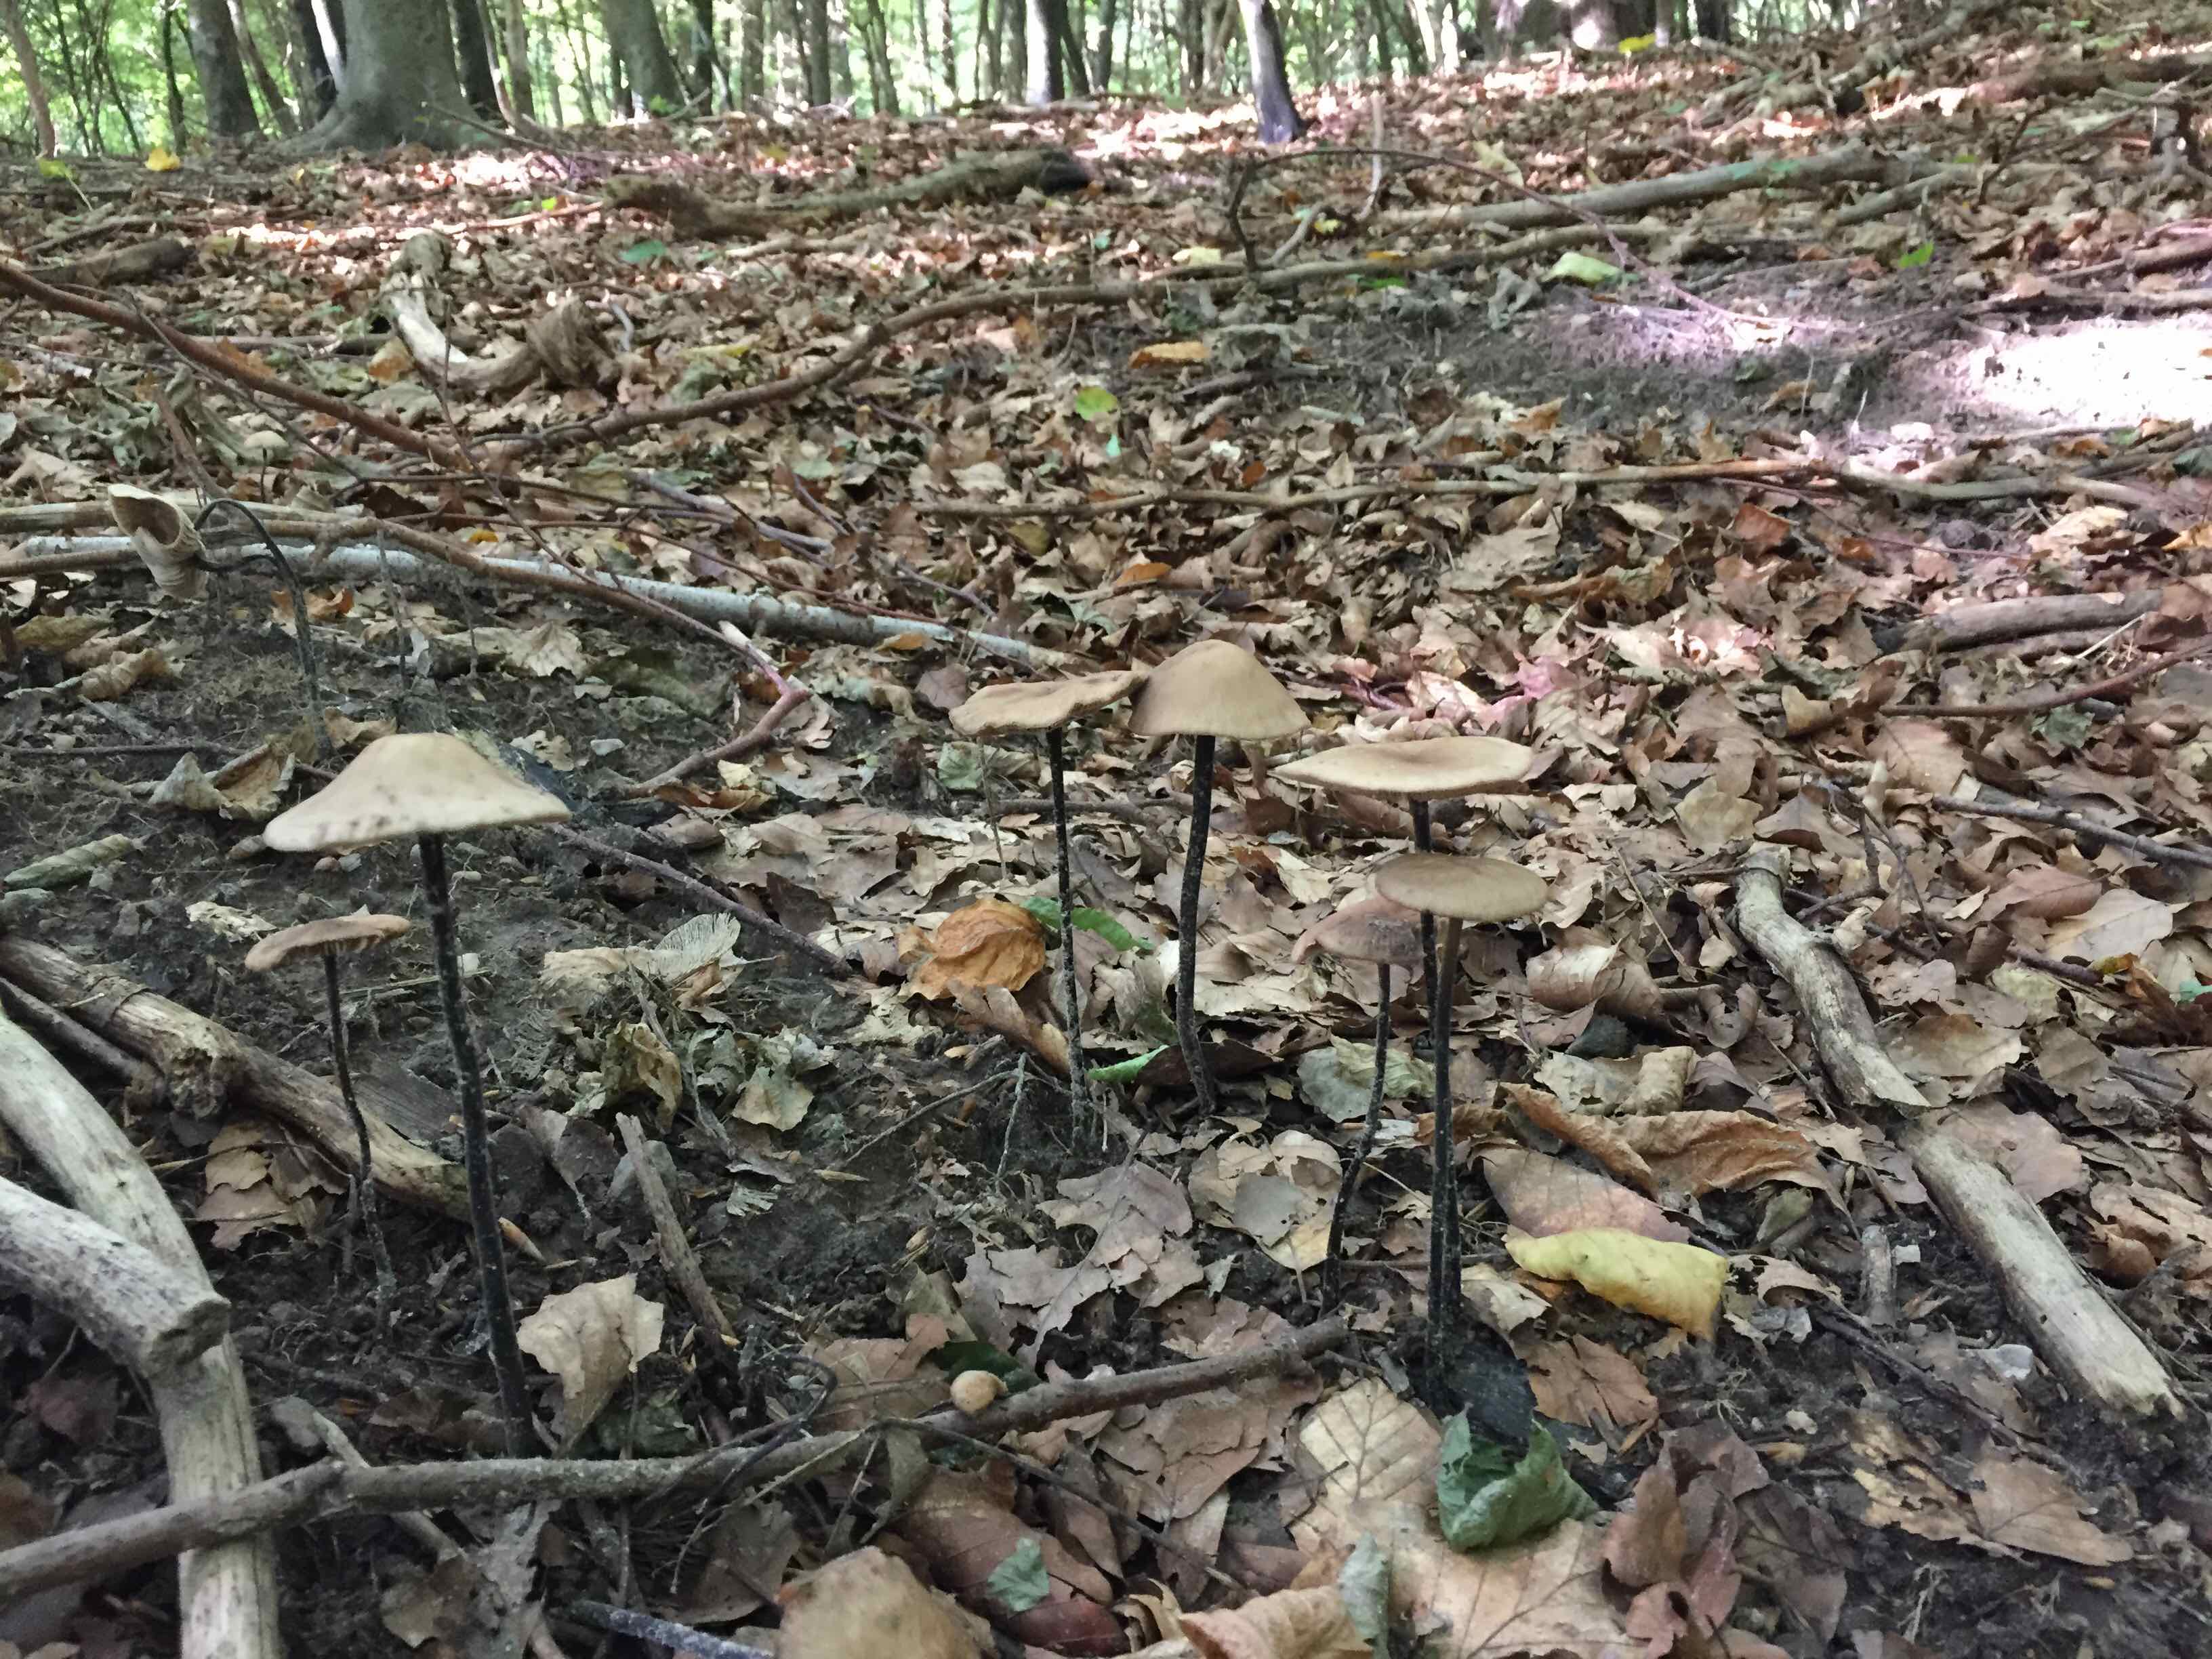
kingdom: Fungi
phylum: Basidiomycota
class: Agaricomycetes
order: Agaricales
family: Omphalotaceae
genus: Mycetinis
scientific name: Mycetinis alliaceus
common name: stor løghat
